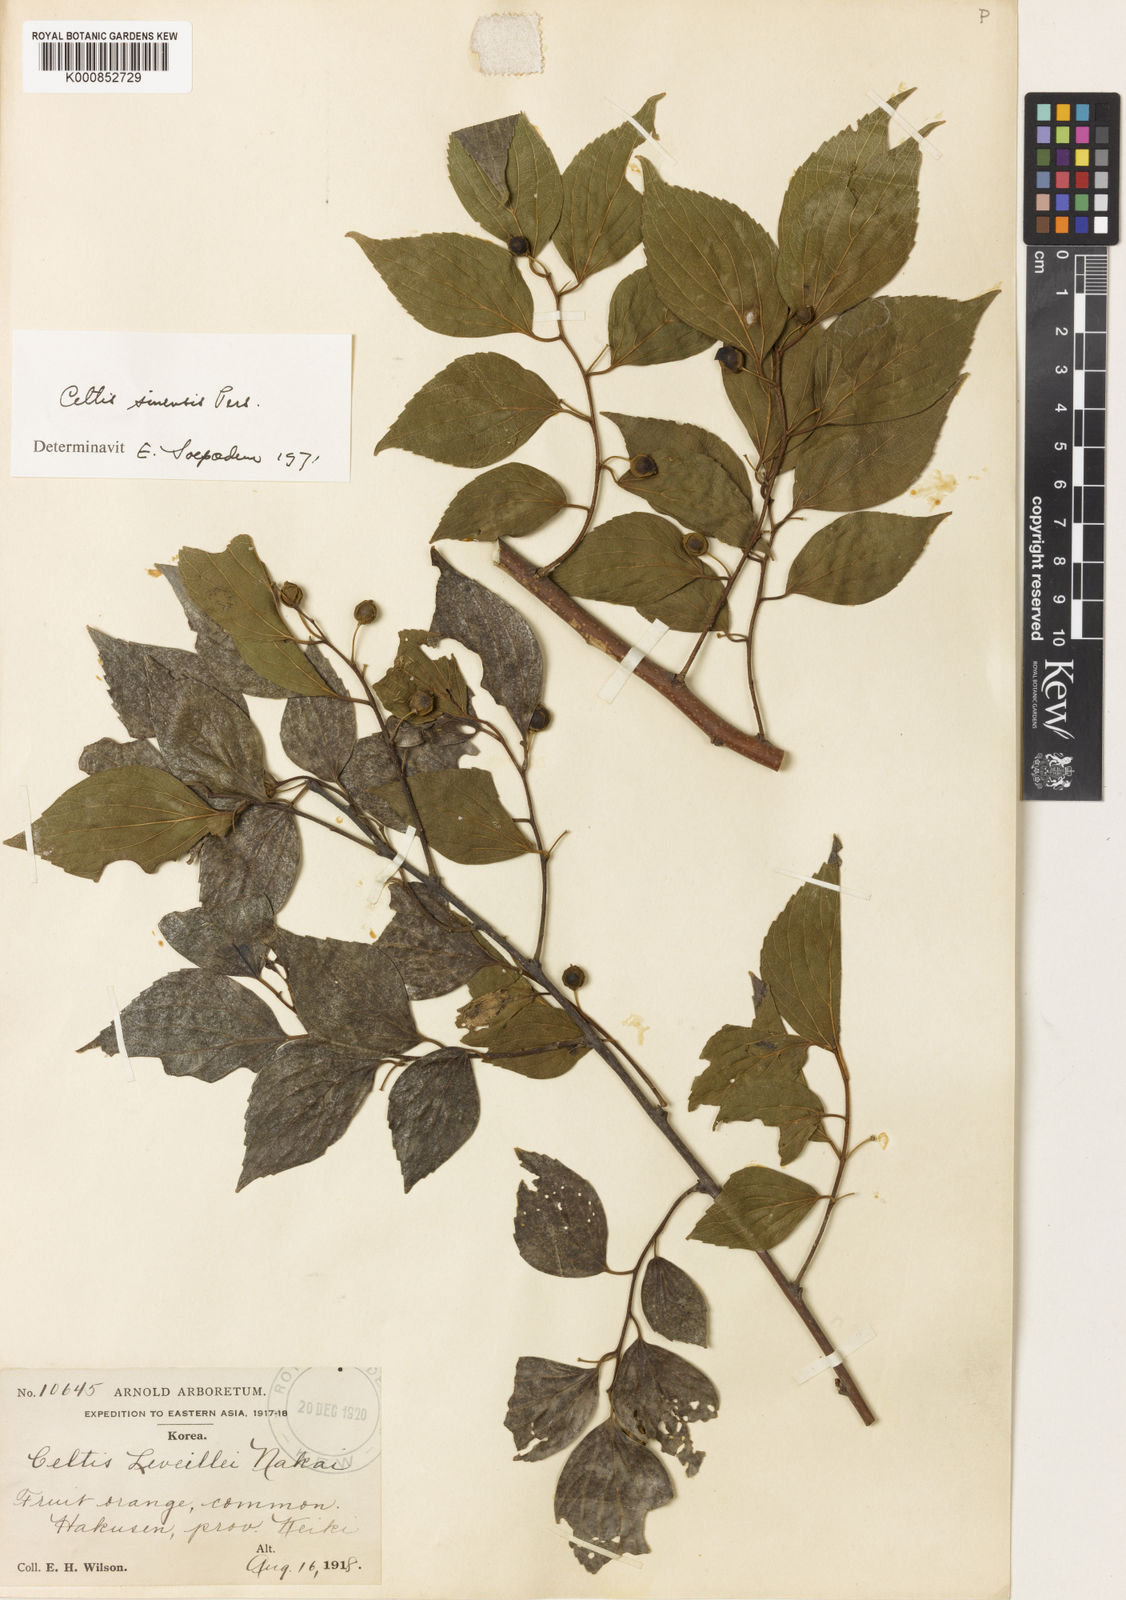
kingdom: Plantae
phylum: Tracheophyta
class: Magnoliopsida
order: Rosales
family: Cannabaceae
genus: Celtis
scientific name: Celtis sinensis
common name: Chinese hackberry
